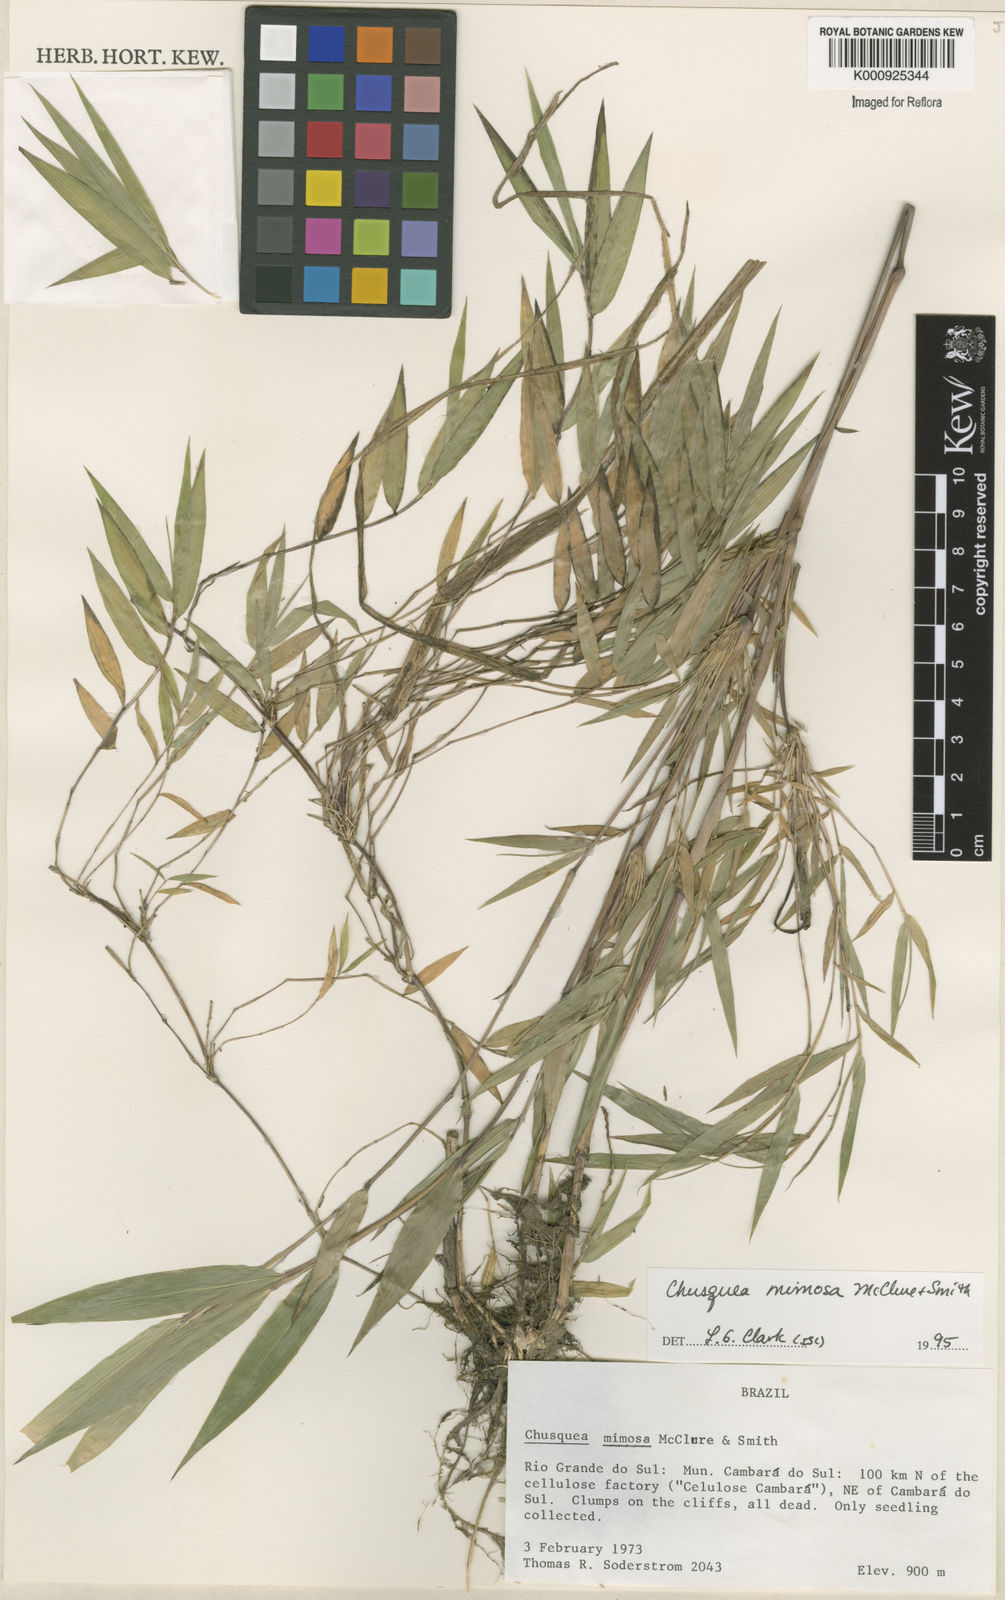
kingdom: Plantae
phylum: Tracheophyta
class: Liliopsida
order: Poales
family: Poaceae
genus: Chusquea
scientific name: Chusquea mimosa
